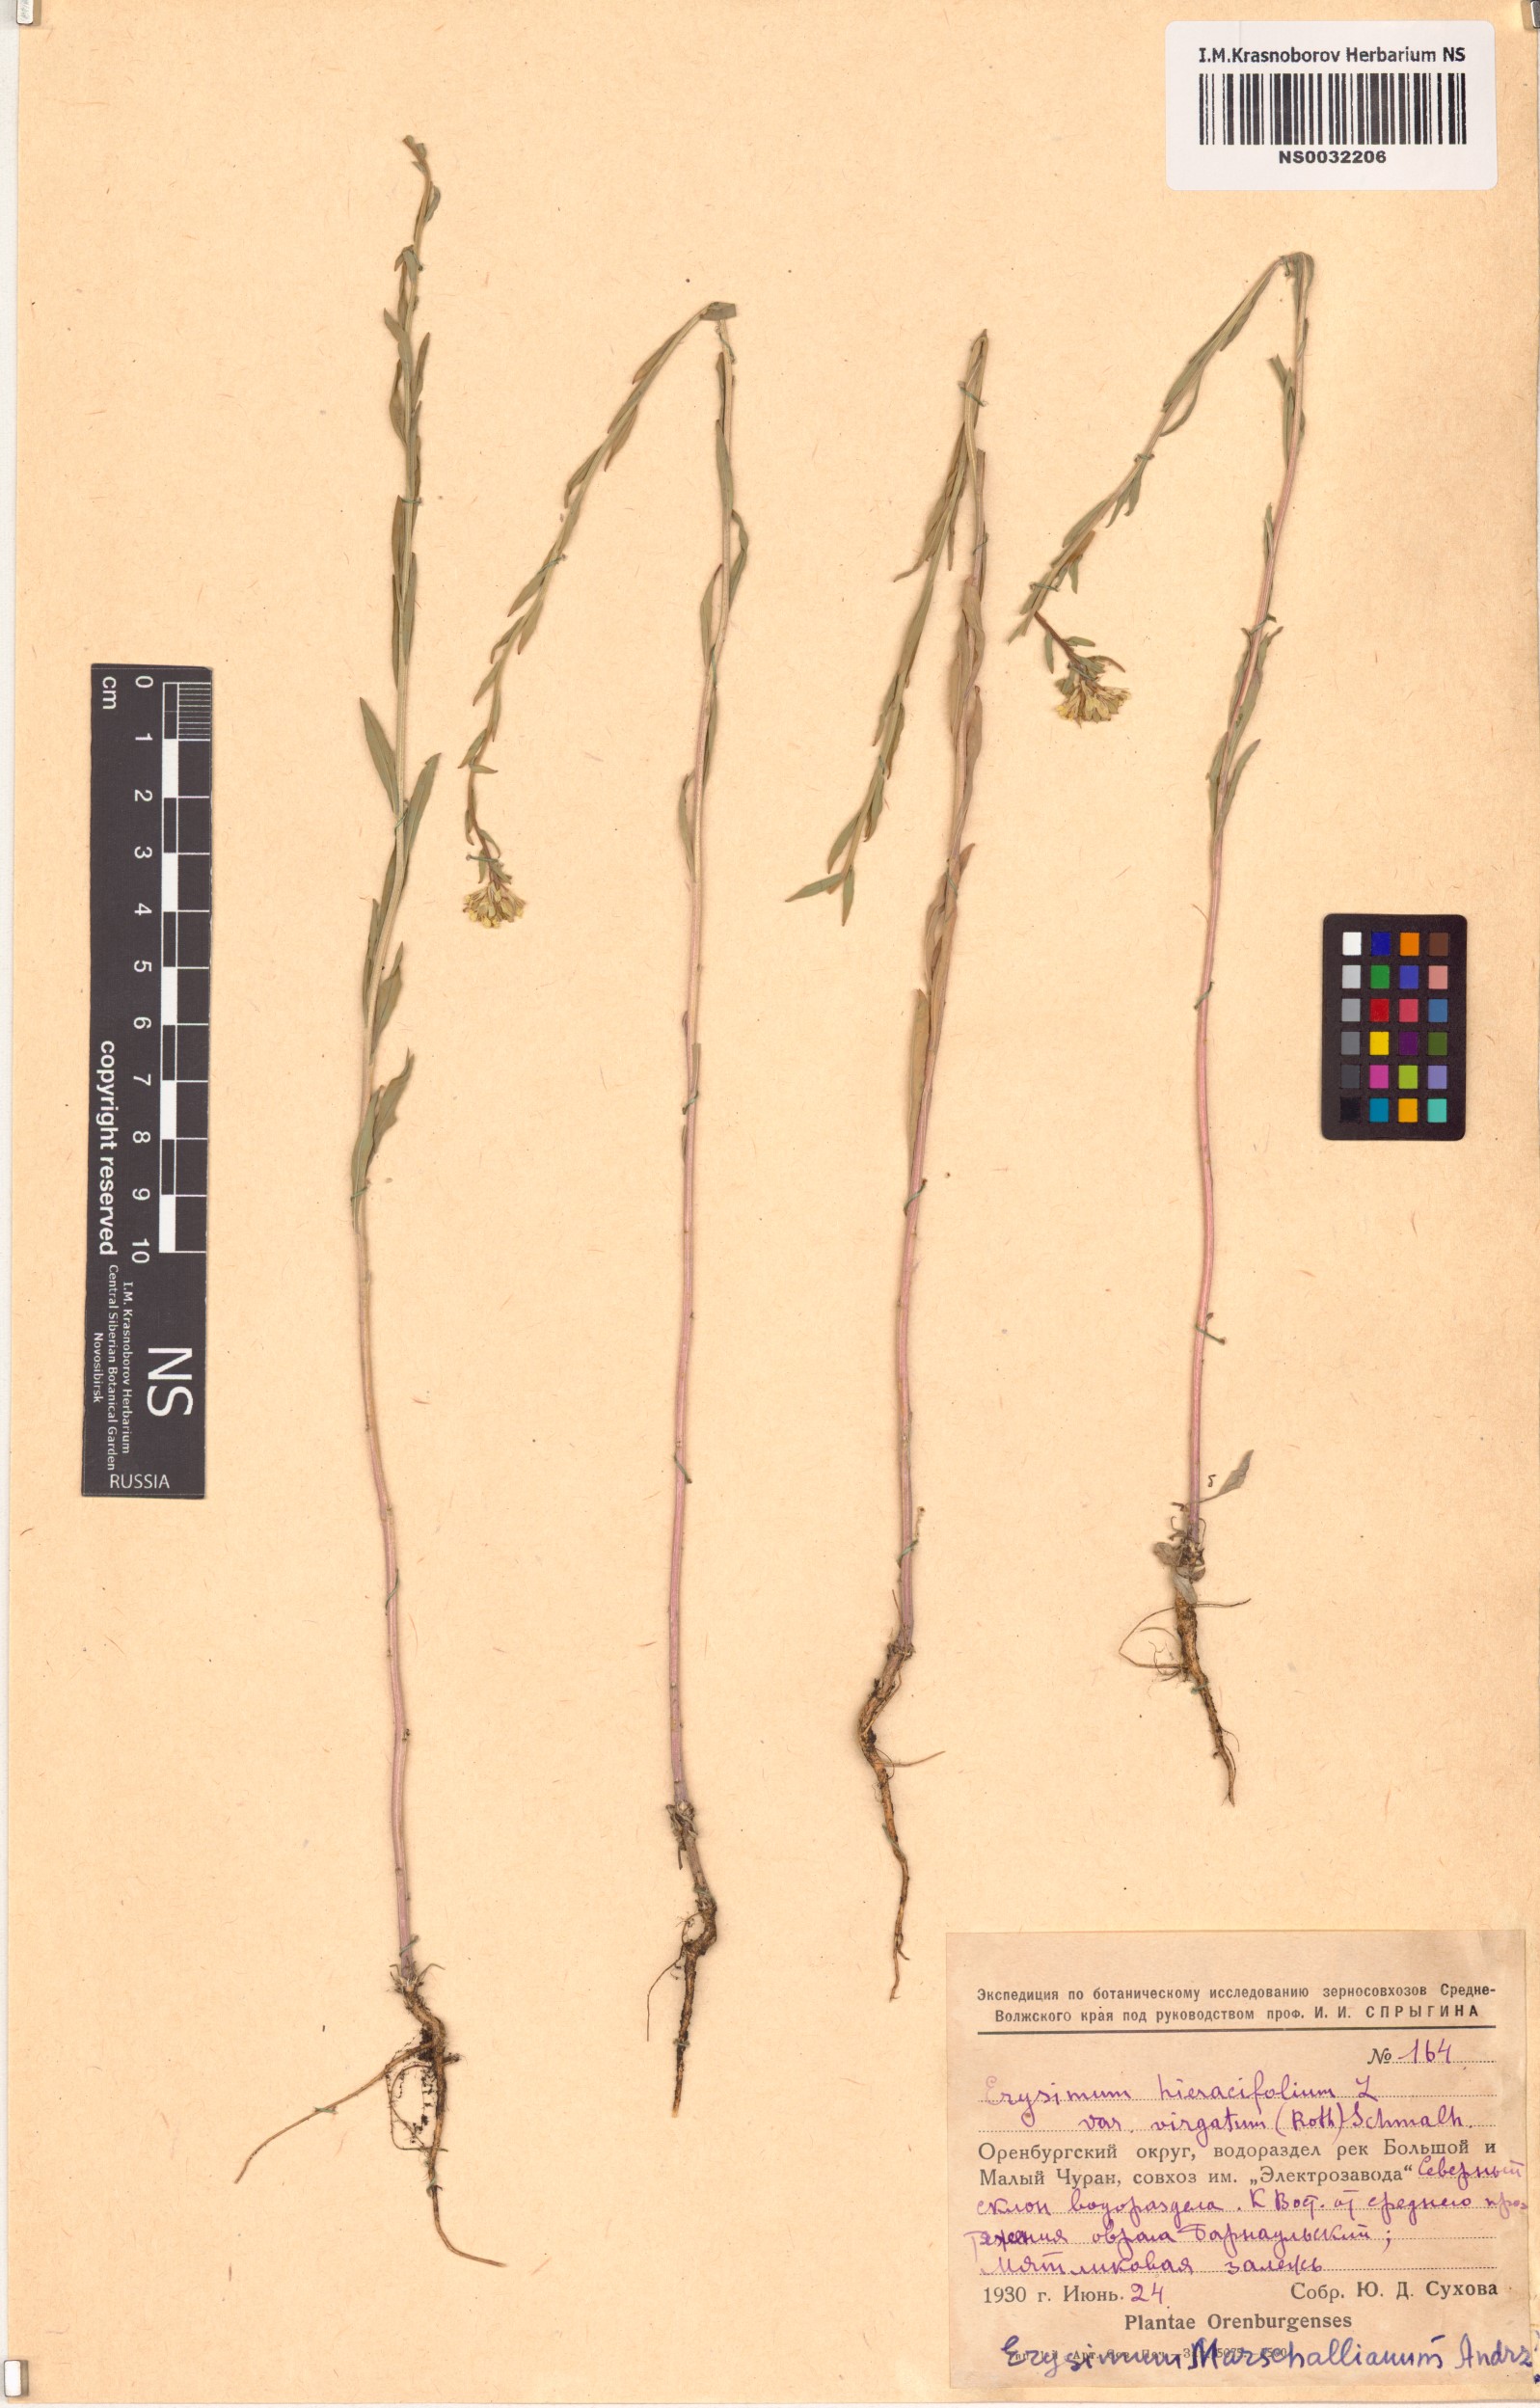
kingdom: Plantae
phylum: Tracheophyta
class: Magnoliopsida
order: Brassicales
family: Brassicaceae
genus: Erysimum
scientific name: Erysimum marschallianum
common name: Hard wallflower
